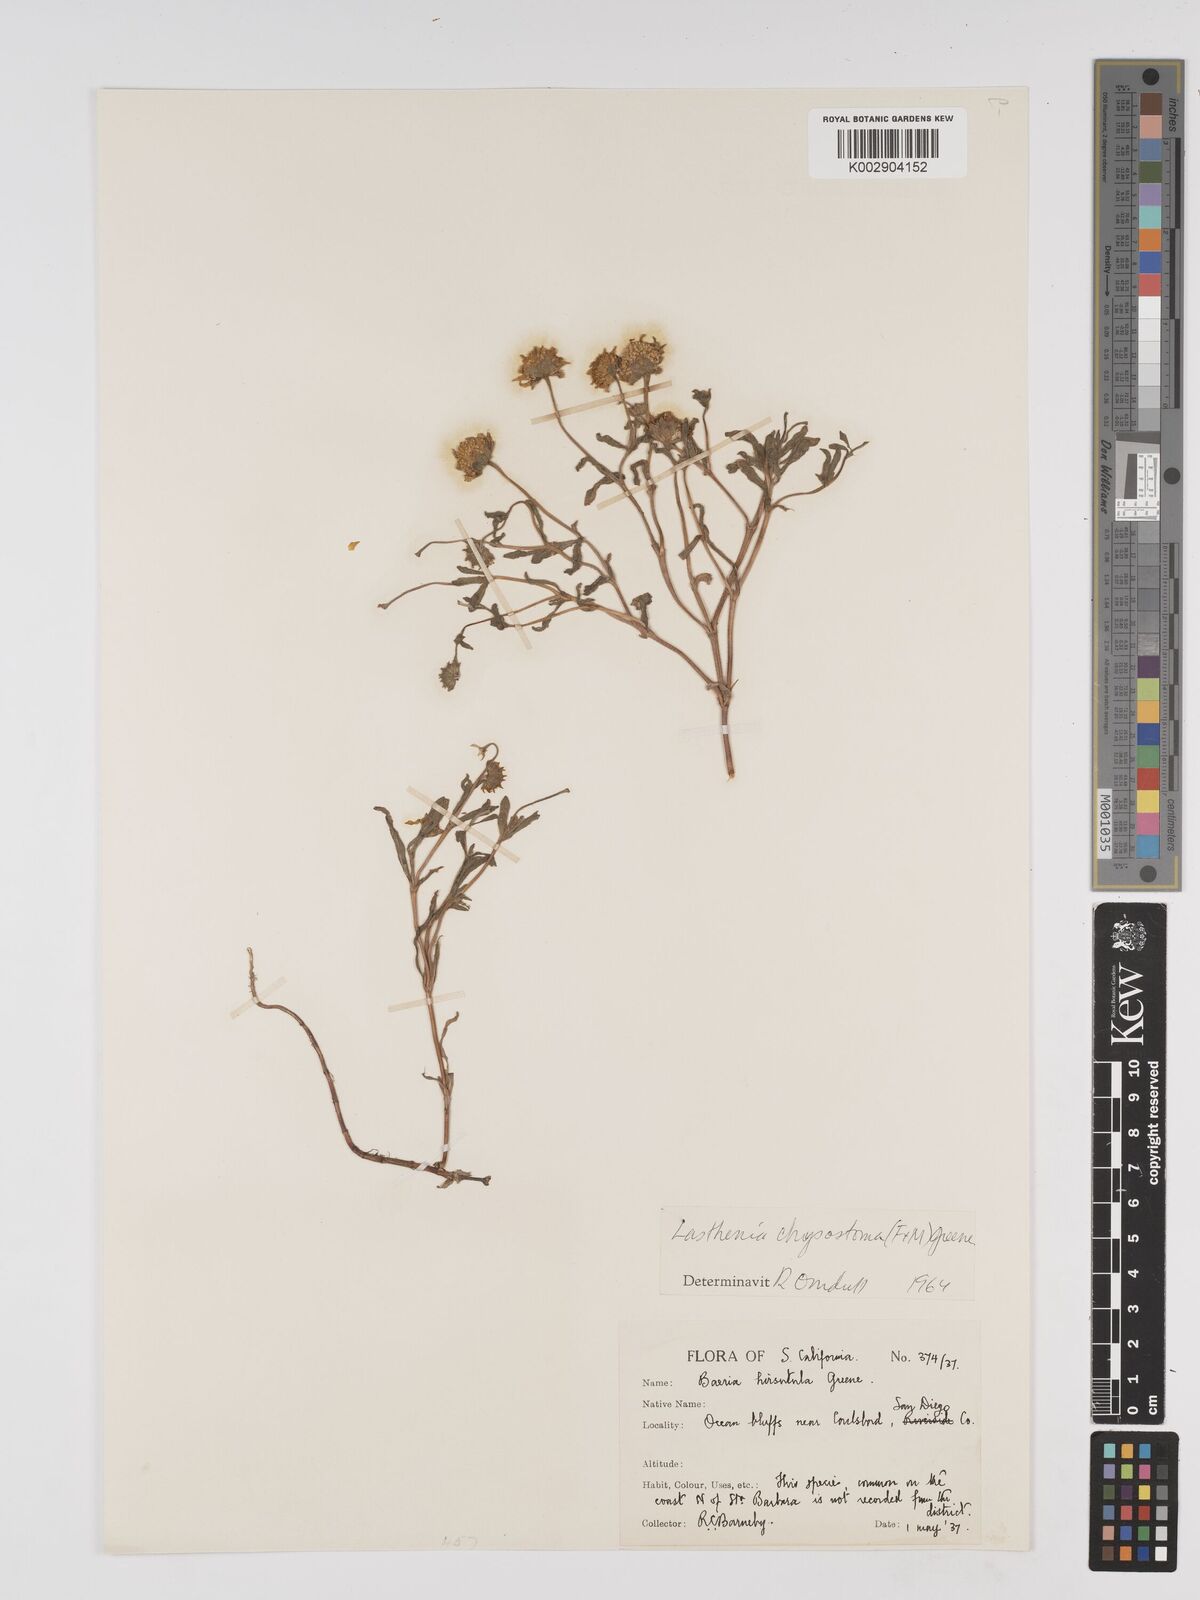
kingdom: Plantae
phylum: Tracheophyta
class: Magnoliopsida
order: Asterales
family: Asteraceae
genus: Lasthenia
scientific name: Lasthenia californica
